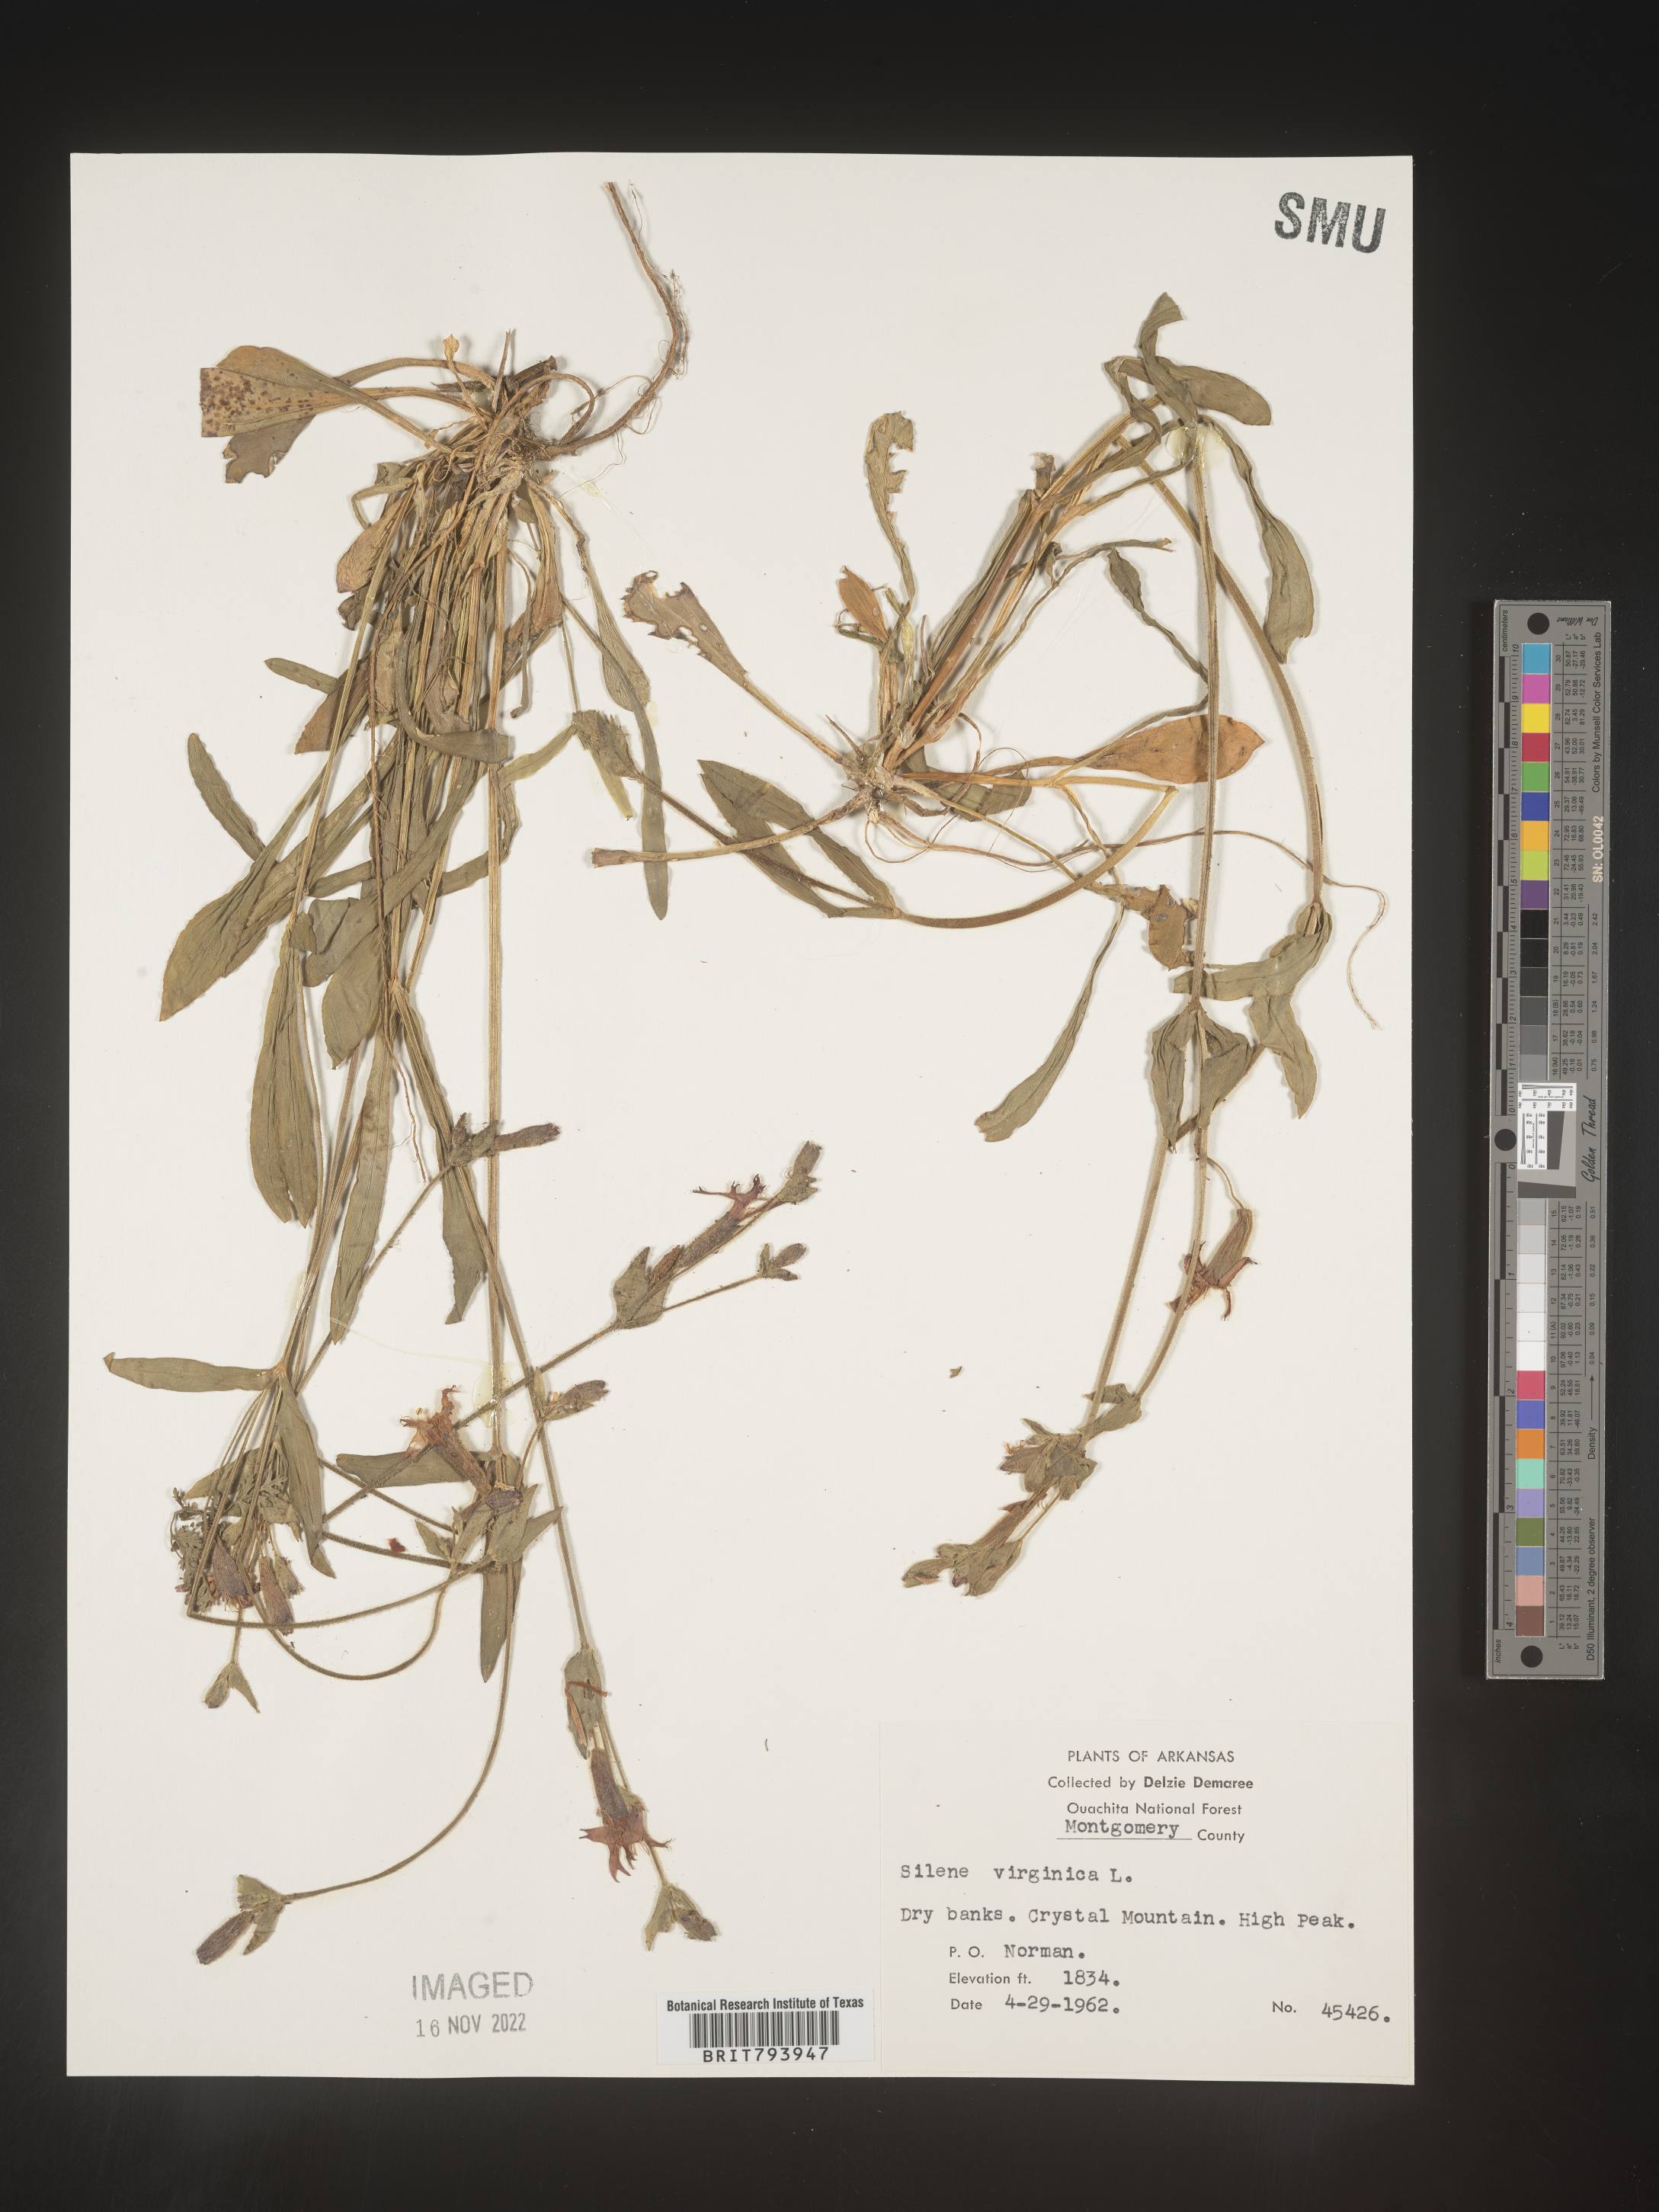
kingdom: Plantae
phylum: Tracheophyta
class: Magnoliopsida
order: Caryophyllales
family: Caryophyllaceae
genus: Silene
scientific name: Silene virginica
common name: Fire-pink
